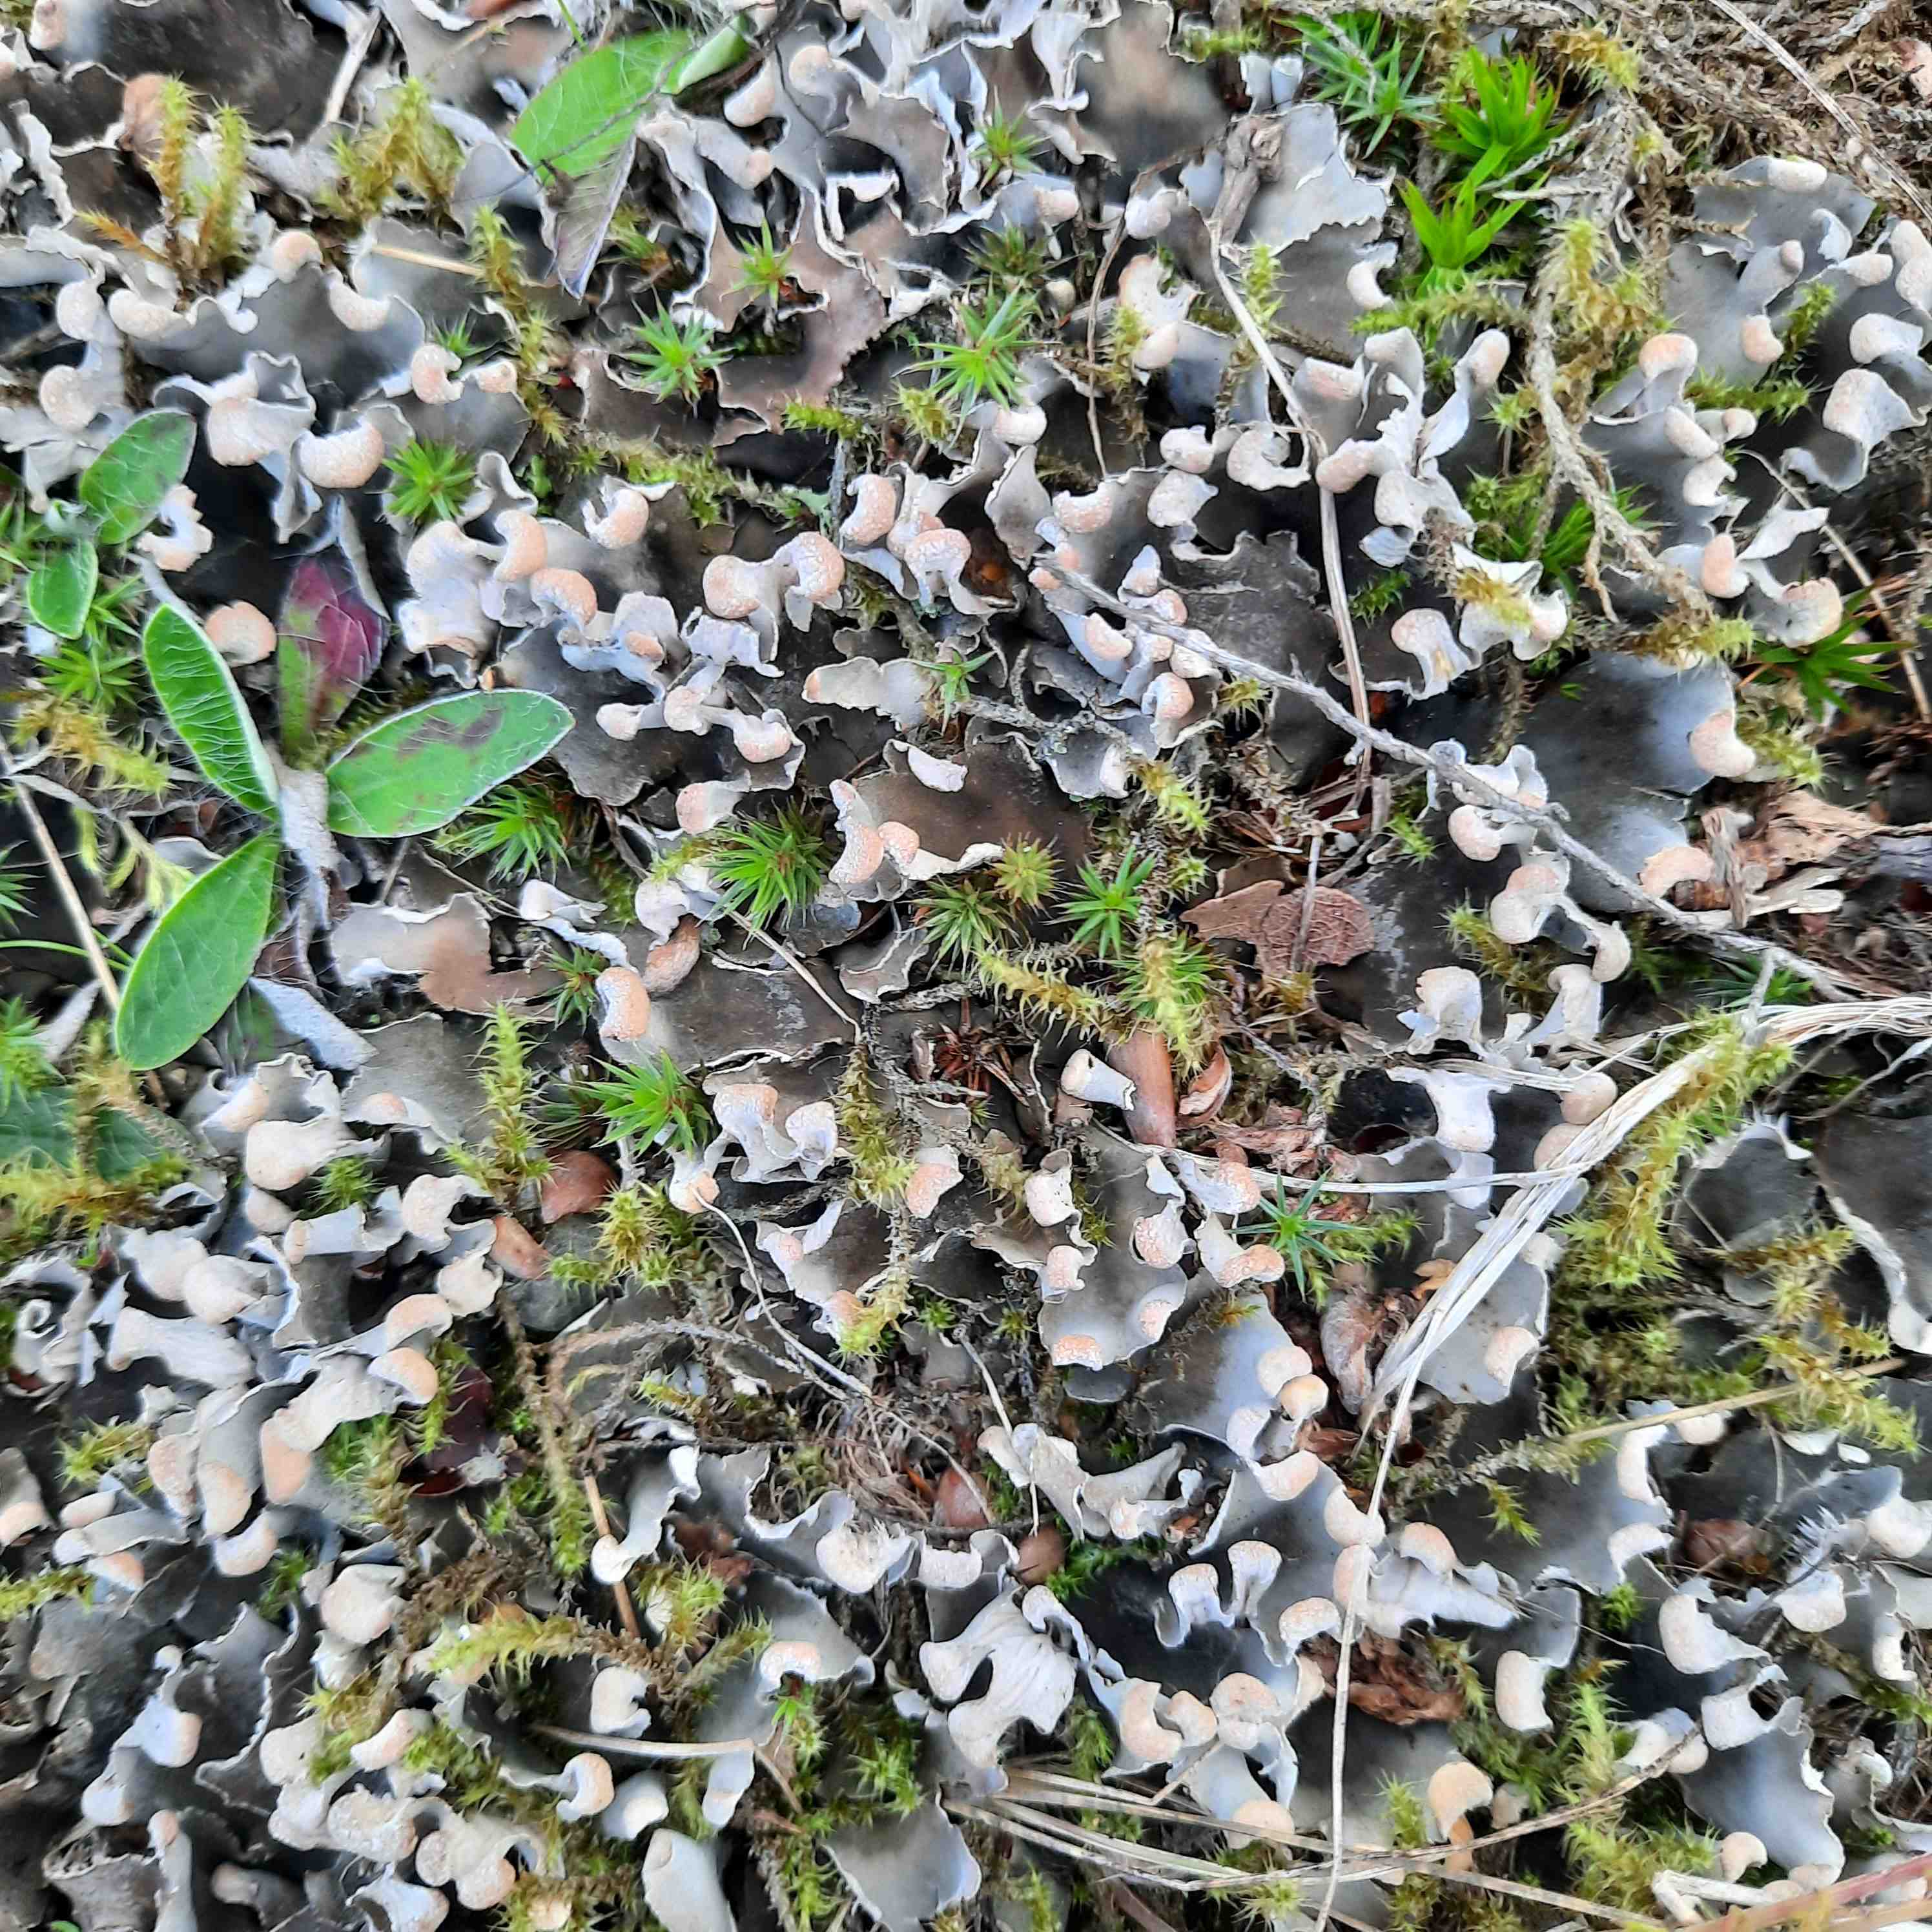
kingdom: Fungi
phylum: Ascomycota
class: Lecanoromycetes
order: Peltigerales
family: Peltigeraceae
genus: Peltigera
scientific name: Peltigera
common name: skjoldlav
